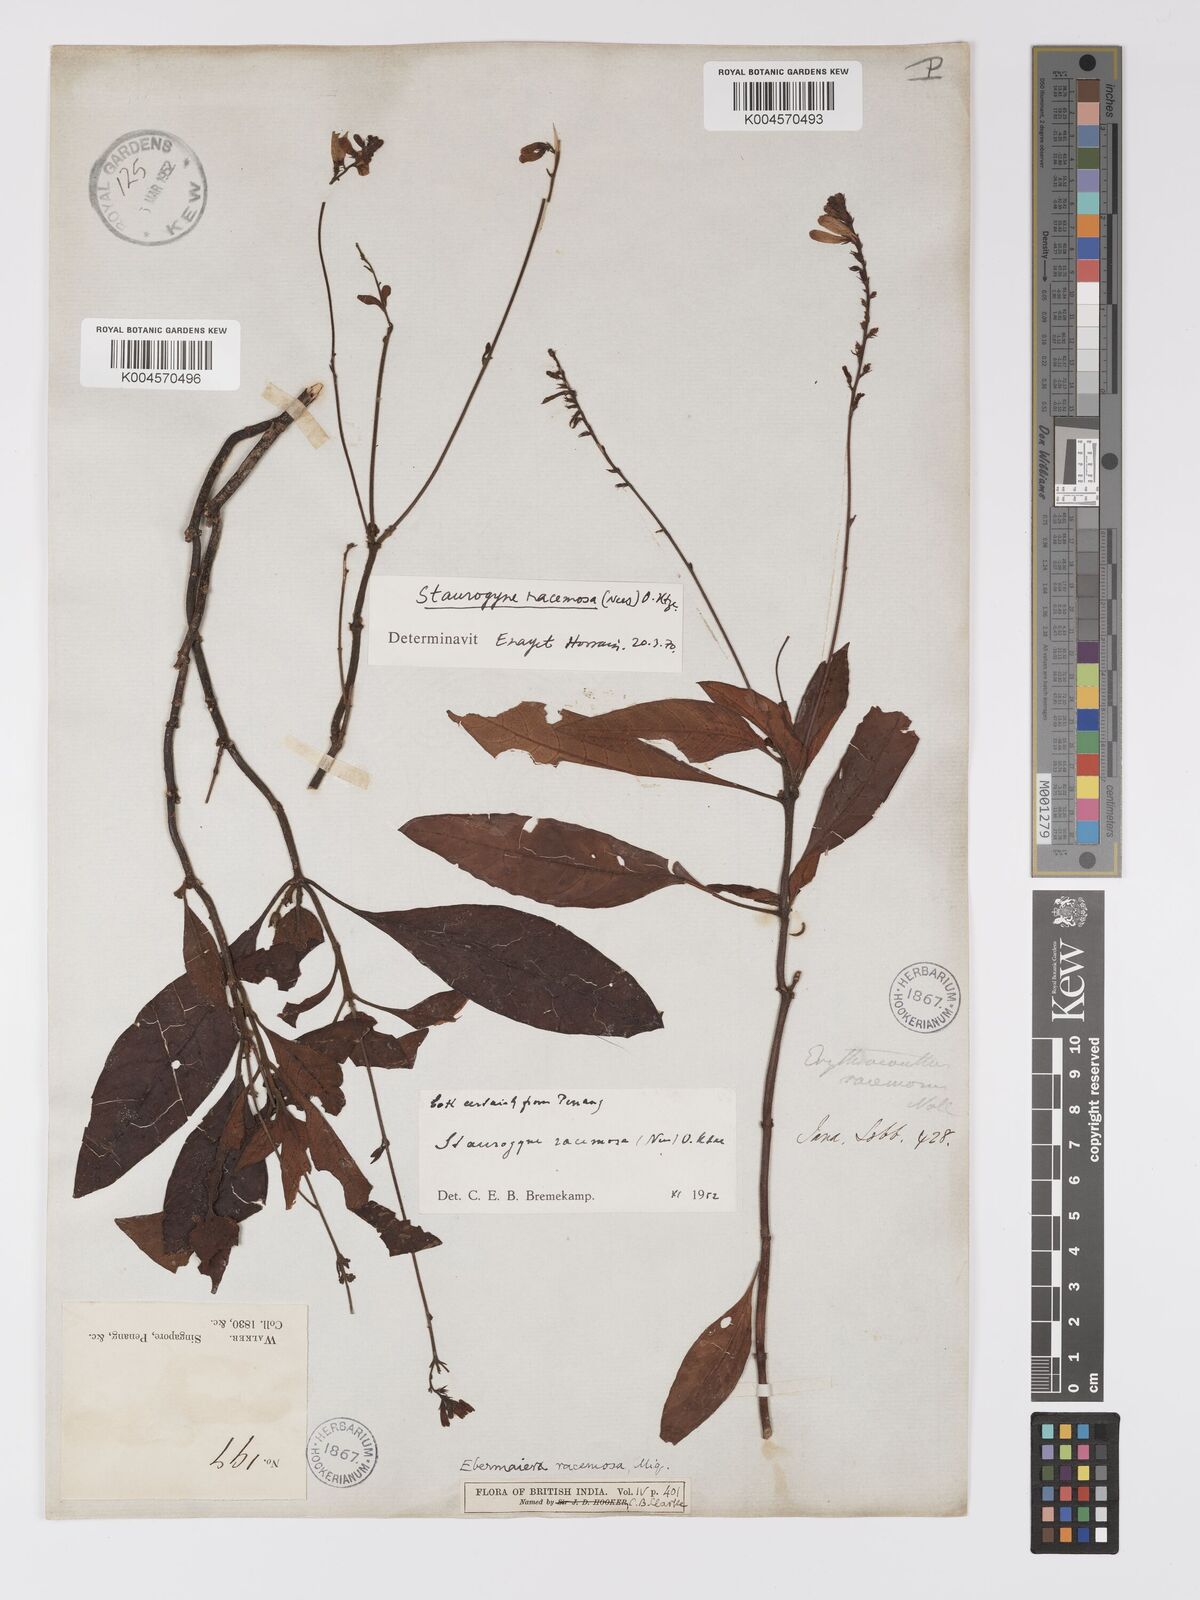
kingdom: Plantae
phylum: Tracheophyta
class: Magnoliopsida
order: Lamiales
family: Acanthaceae
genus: Staurogyne
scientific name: Staurogyne racemosa
